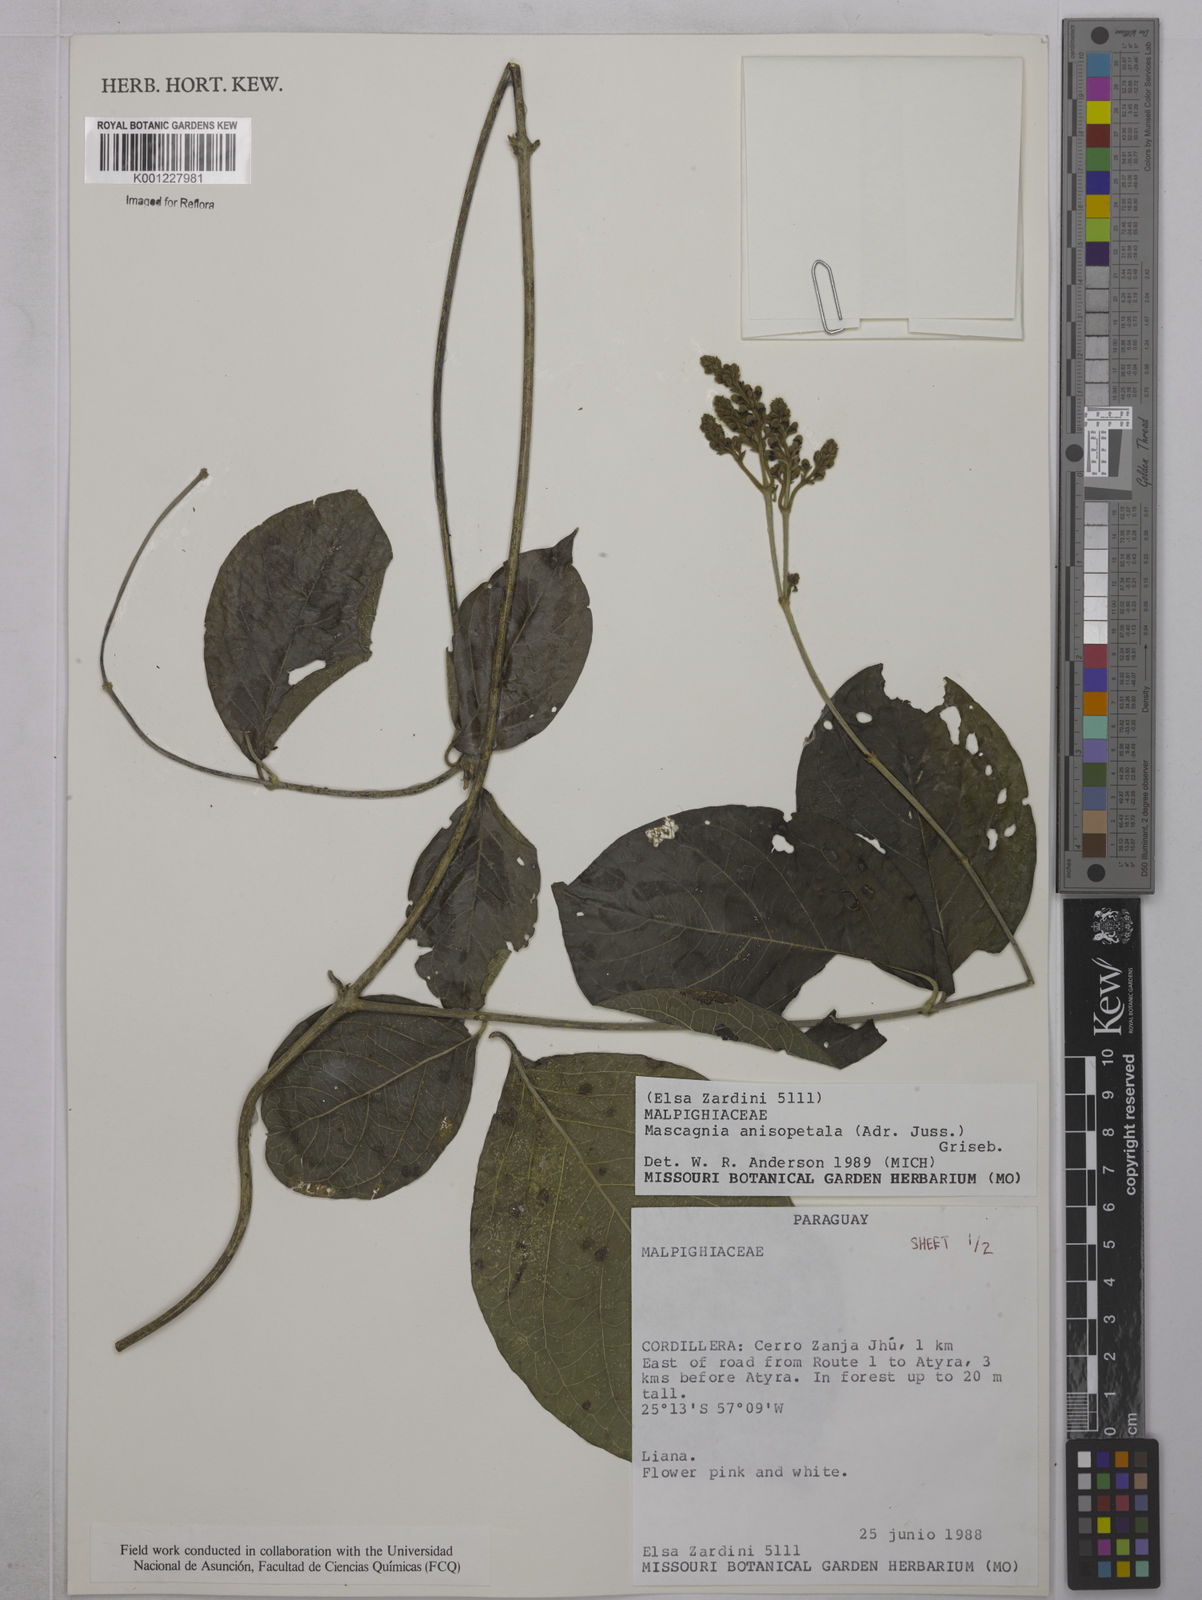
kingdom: Plantae
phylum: Tracheophyta
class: Magnoliopsida
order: Malpighiales
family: Malpighiaceae
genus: Alicia
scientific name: Alicia anisopetala
